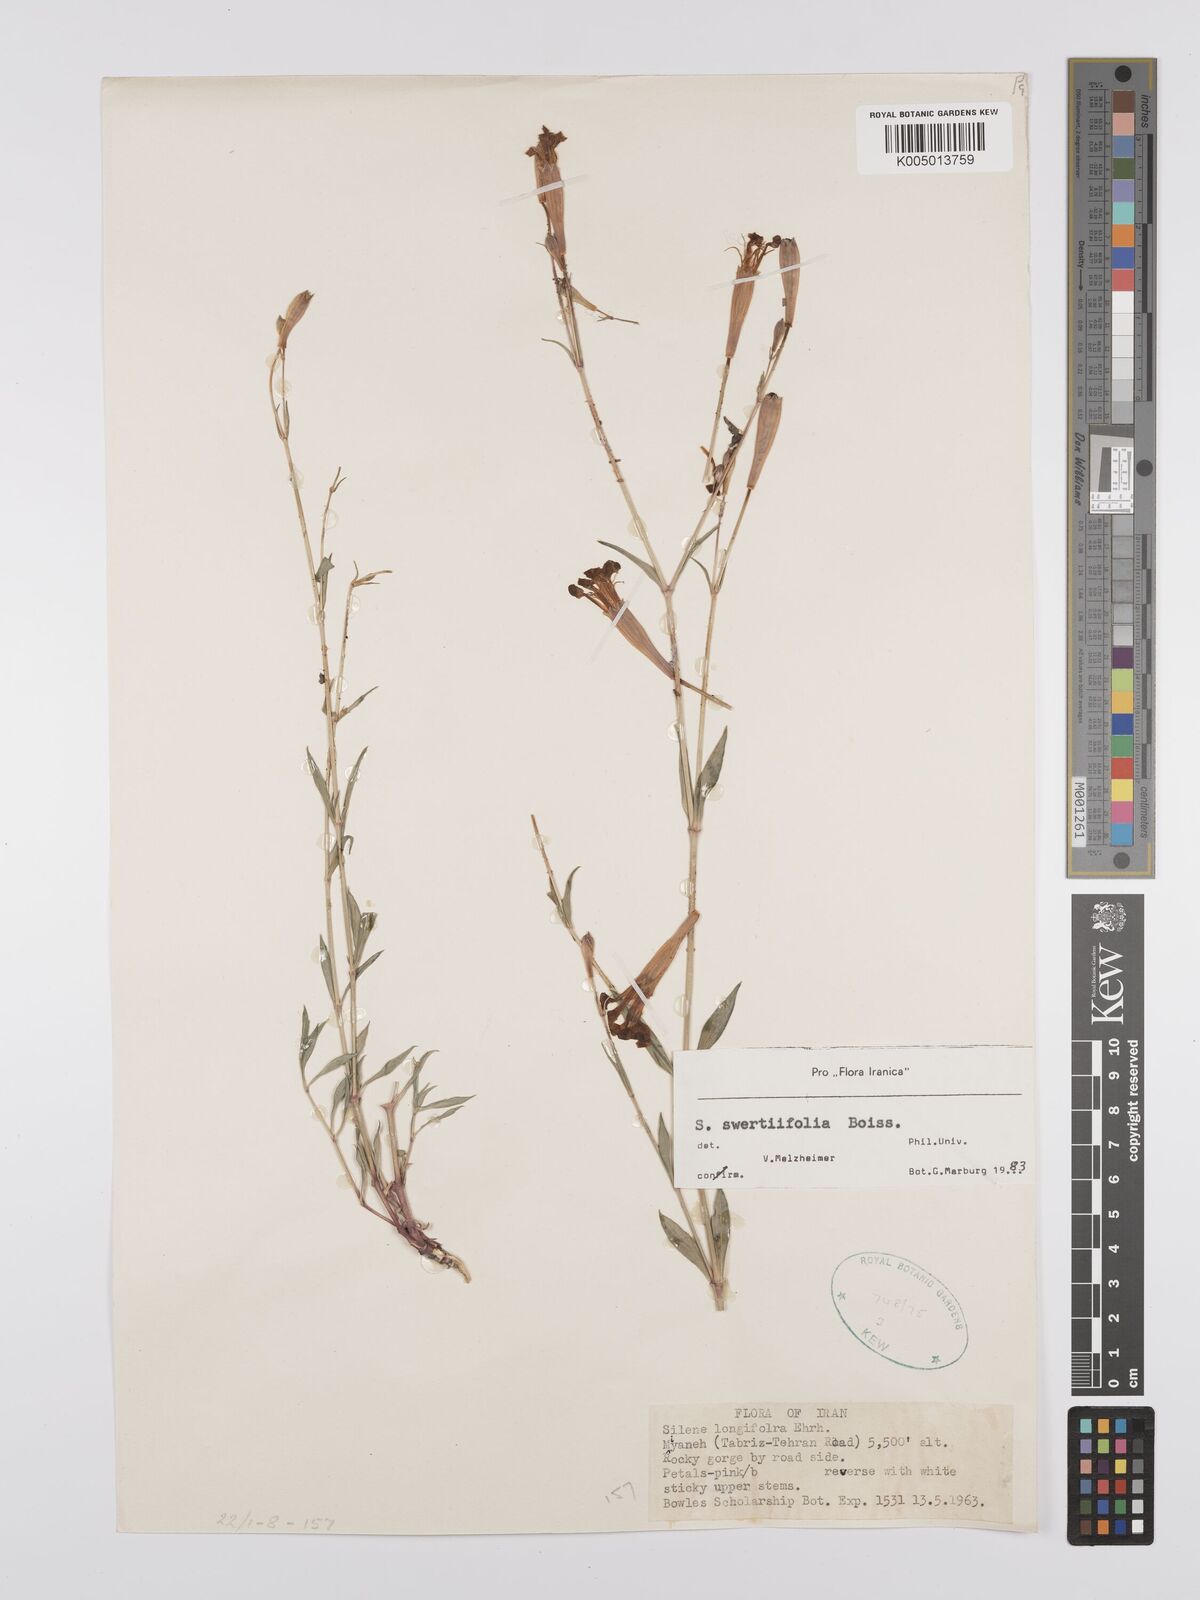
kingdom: Plantae
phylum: Tracheophyta
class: Magnoliopsida
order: Caryophyllales
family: Caryophyllaceae
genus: Silene
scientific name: Silene swertiifolia
